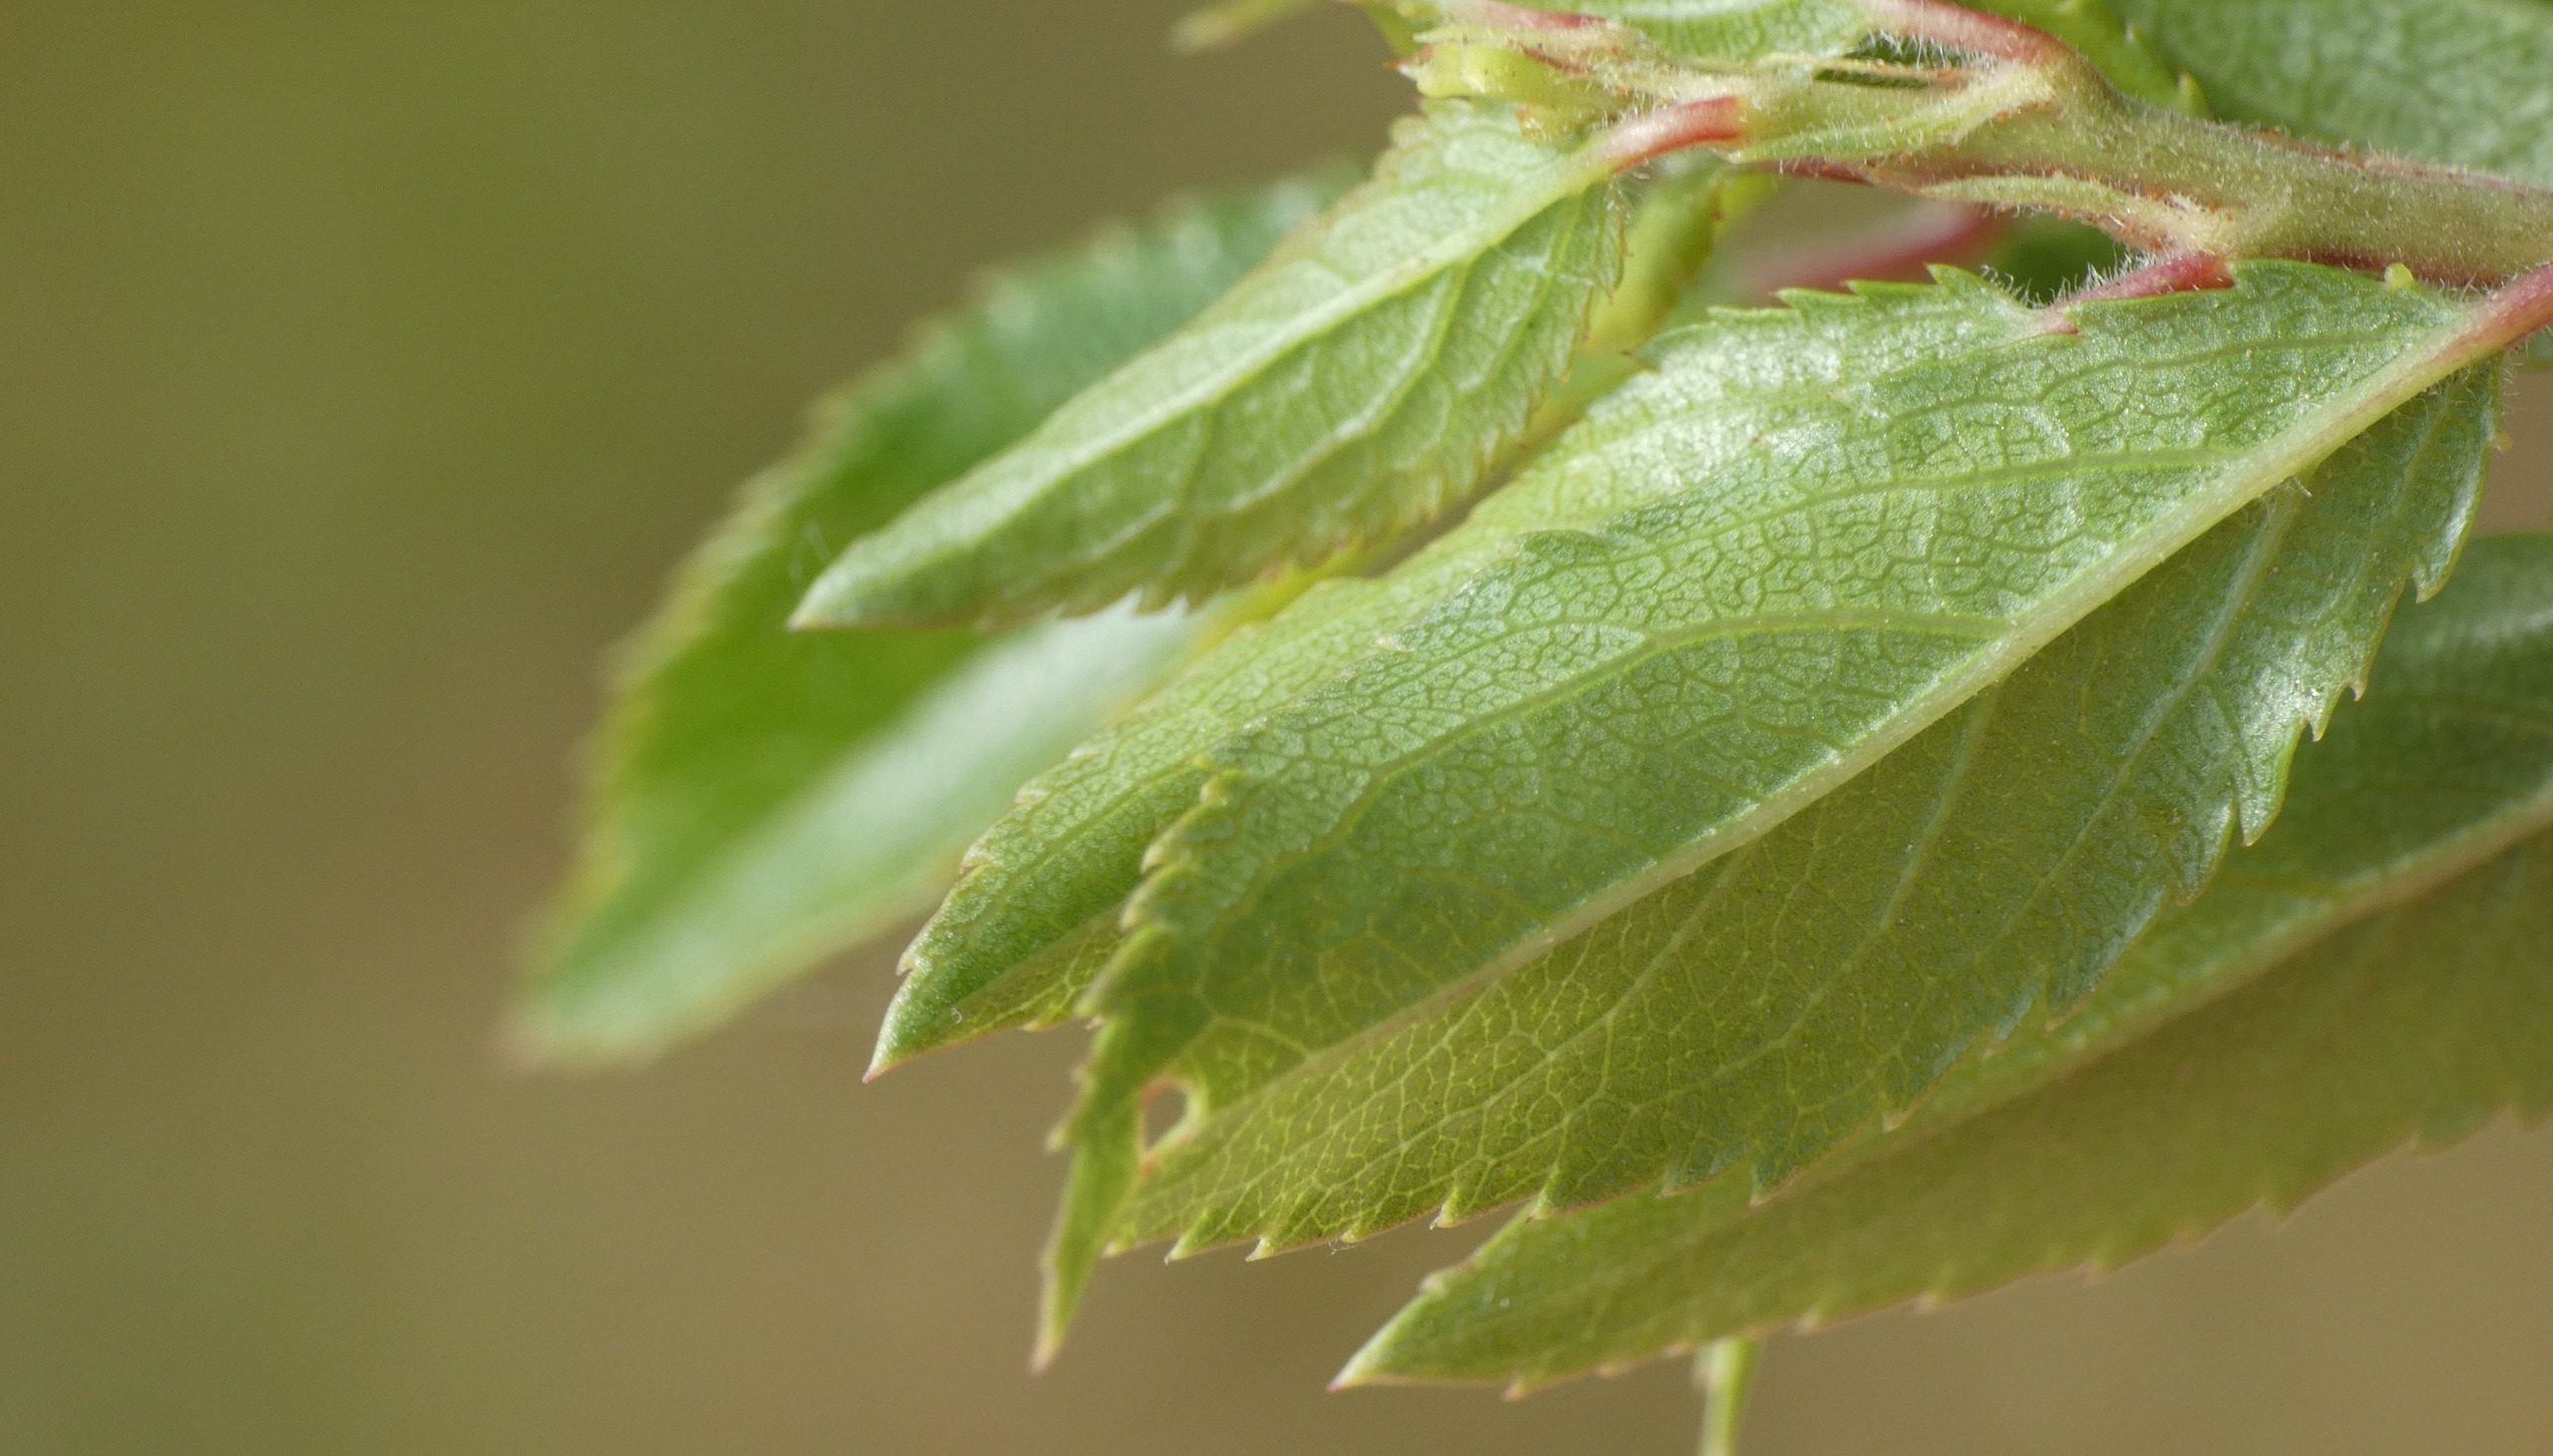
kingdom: Plantae
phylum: Tracheophyta
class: Magnoliopsida
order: Rosales
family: Rosaceae
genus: Prunus
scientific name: Prunus spinosa
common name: Slåen
